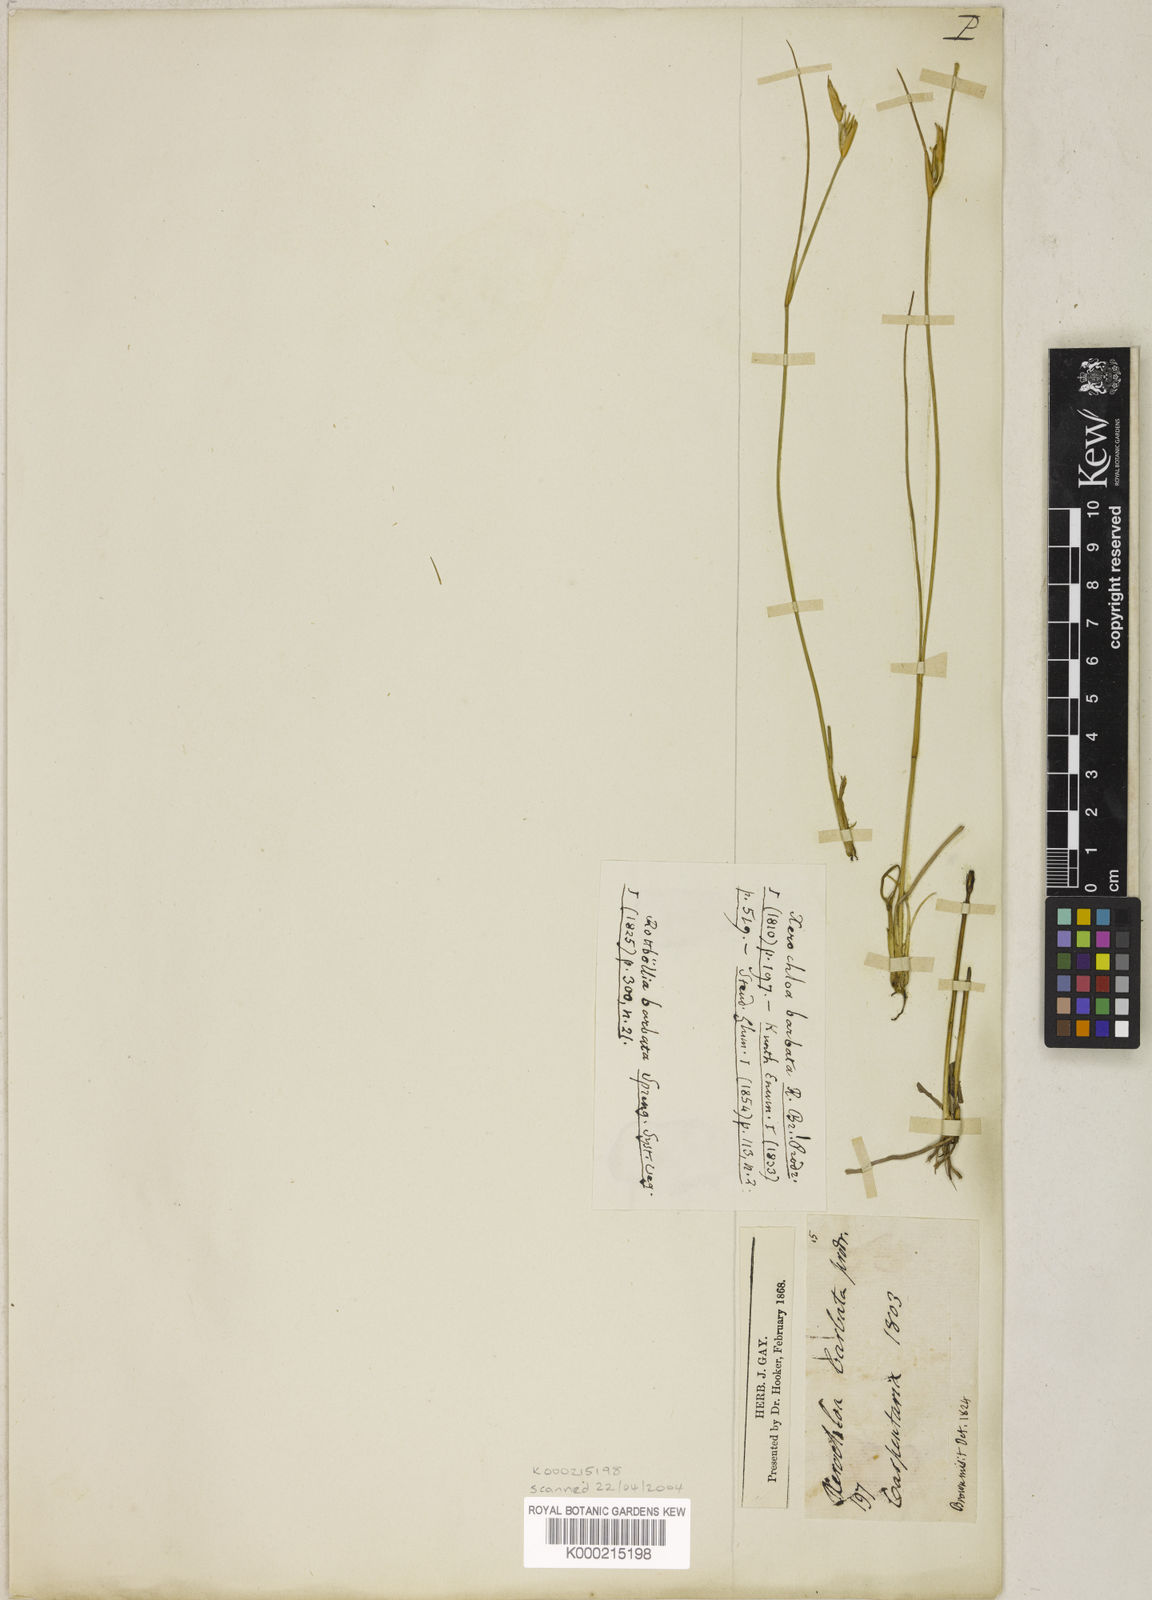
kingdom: Plantae
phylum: Tracheophyta
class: Liliopsida
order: Poales
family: Poaceae
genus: Xerochloa
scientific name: Xerochloa barbata
